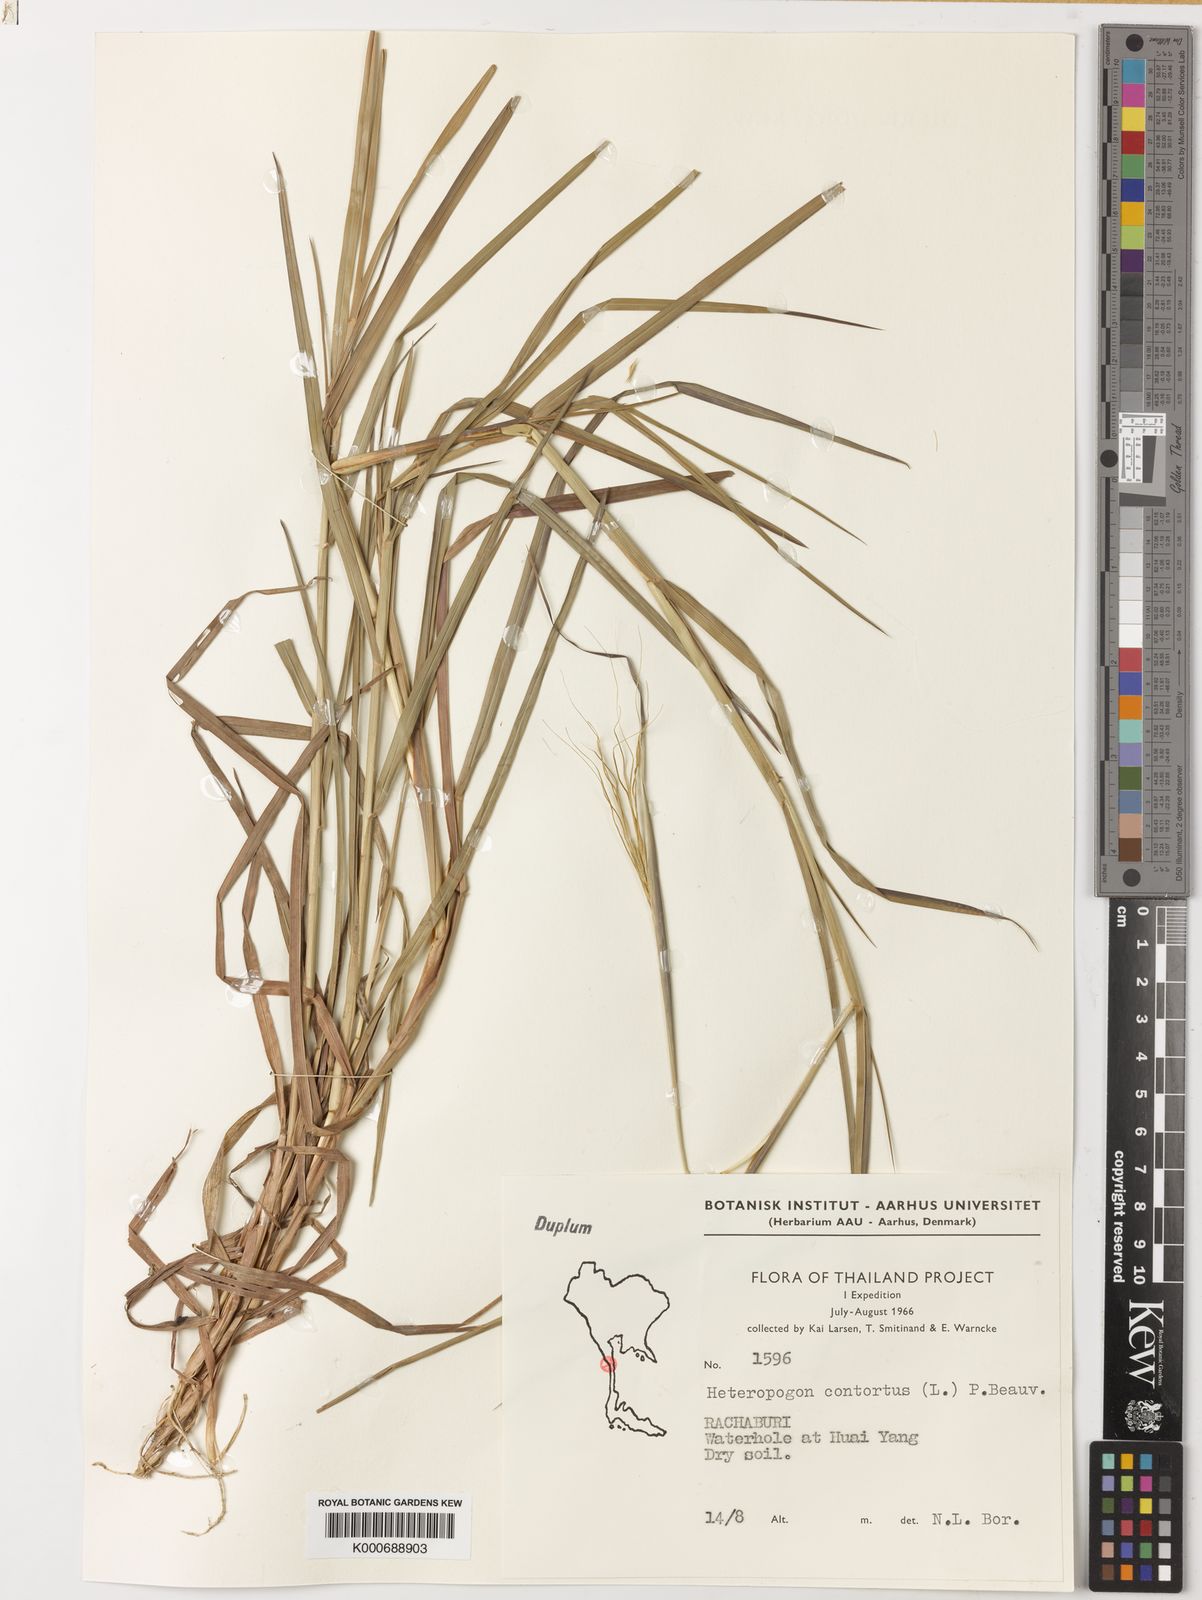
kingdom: Plantae
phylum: Tracheophyta
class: Liliopsida
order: Poales
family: Poaceae
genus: Heteropogon
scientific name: Heteropogon contortus
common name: Tanglehead
